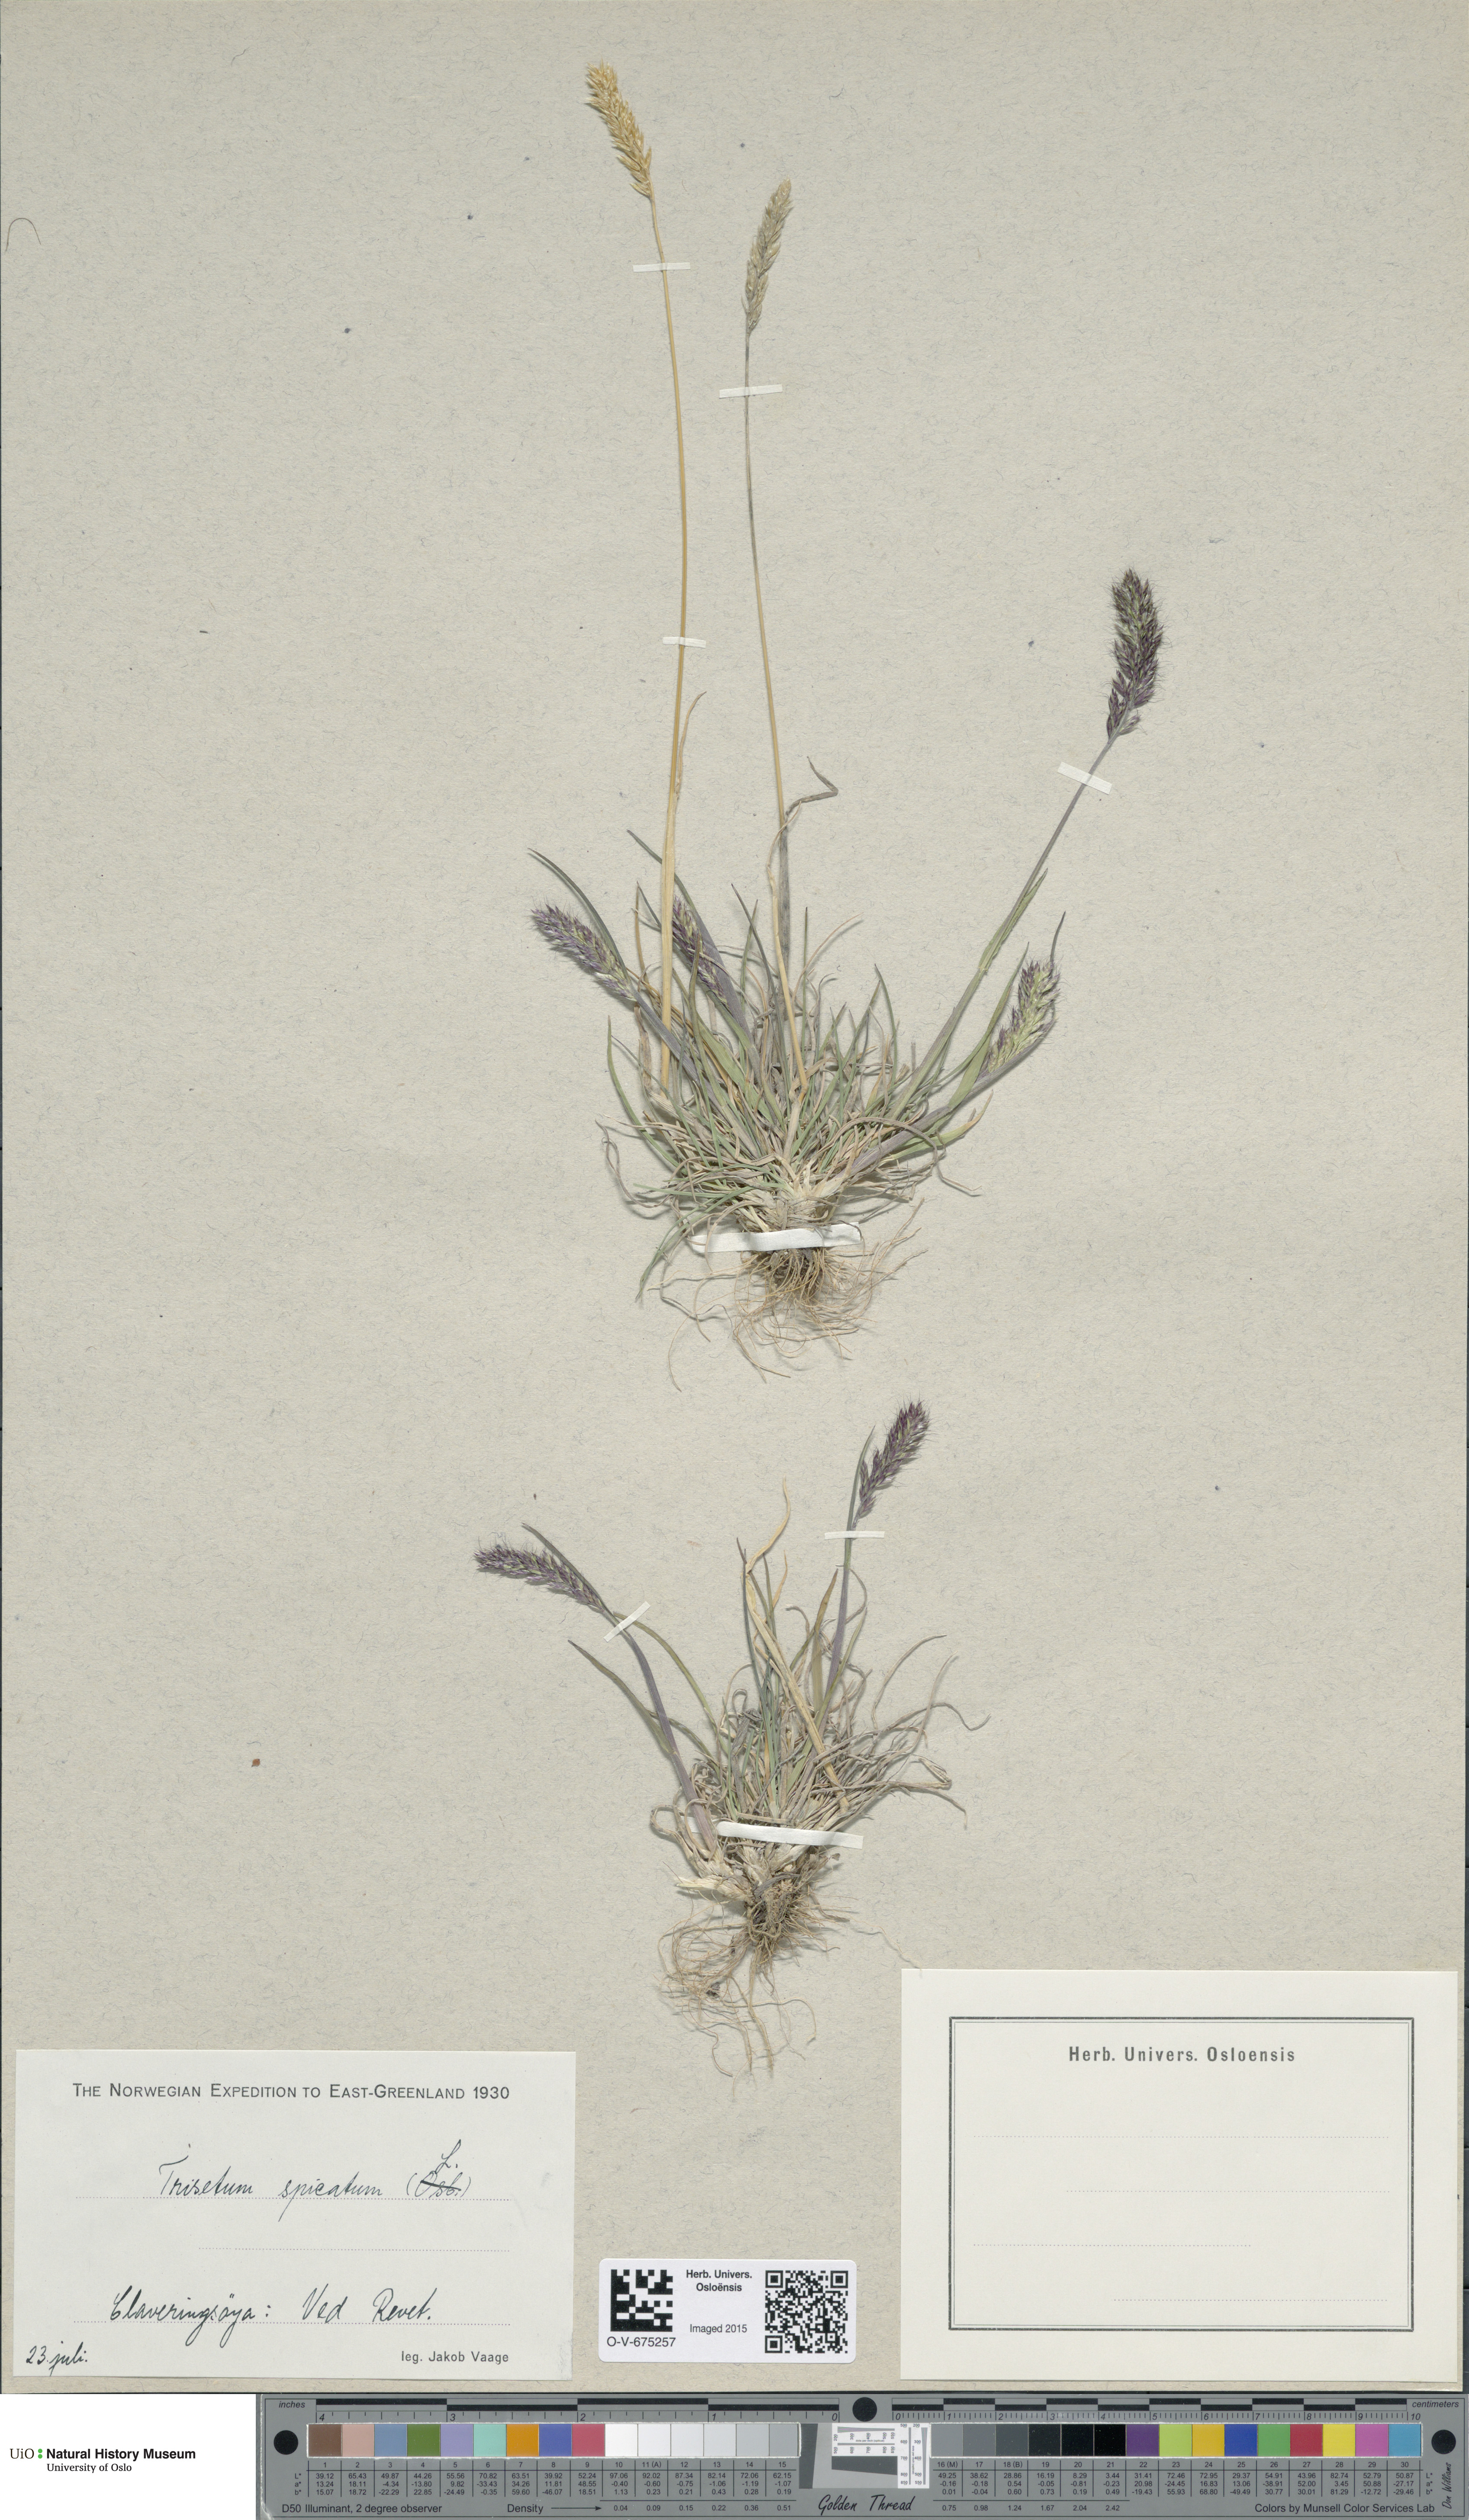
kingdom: Plantae
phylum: Tracheophyta
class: Liliopsida
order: Poales
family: Poaceae
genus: Koeleria
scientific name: Koeleria spicata
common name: Mountain trisetum
